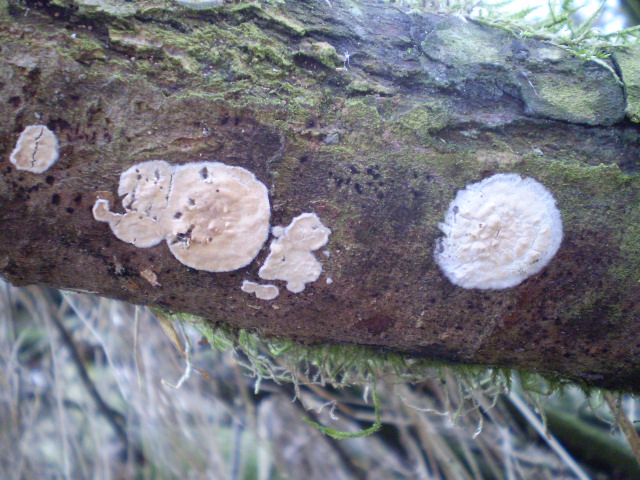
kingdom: Fungi
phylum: Basidiomycota
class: Agaricomycetes
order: Agaricales
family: Physalacriaceae
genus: Cylindrobasidium
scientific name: Cylindrobasidium evolvens
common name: sprækkehinde
